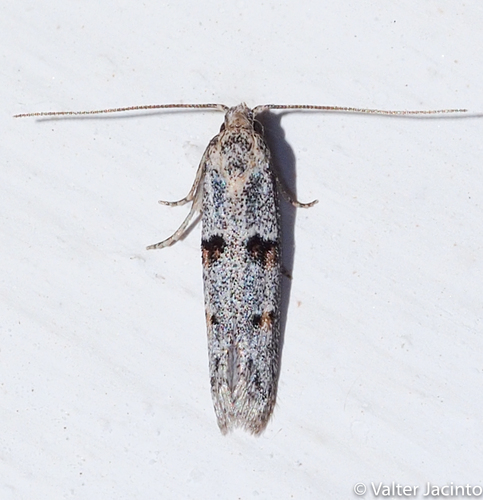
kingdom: Animalia
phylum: Arthropoda
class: Insecta
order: Lepidoptera
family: Autostichidae
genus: Symmocoides
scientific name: Symmocoides oxybiella
